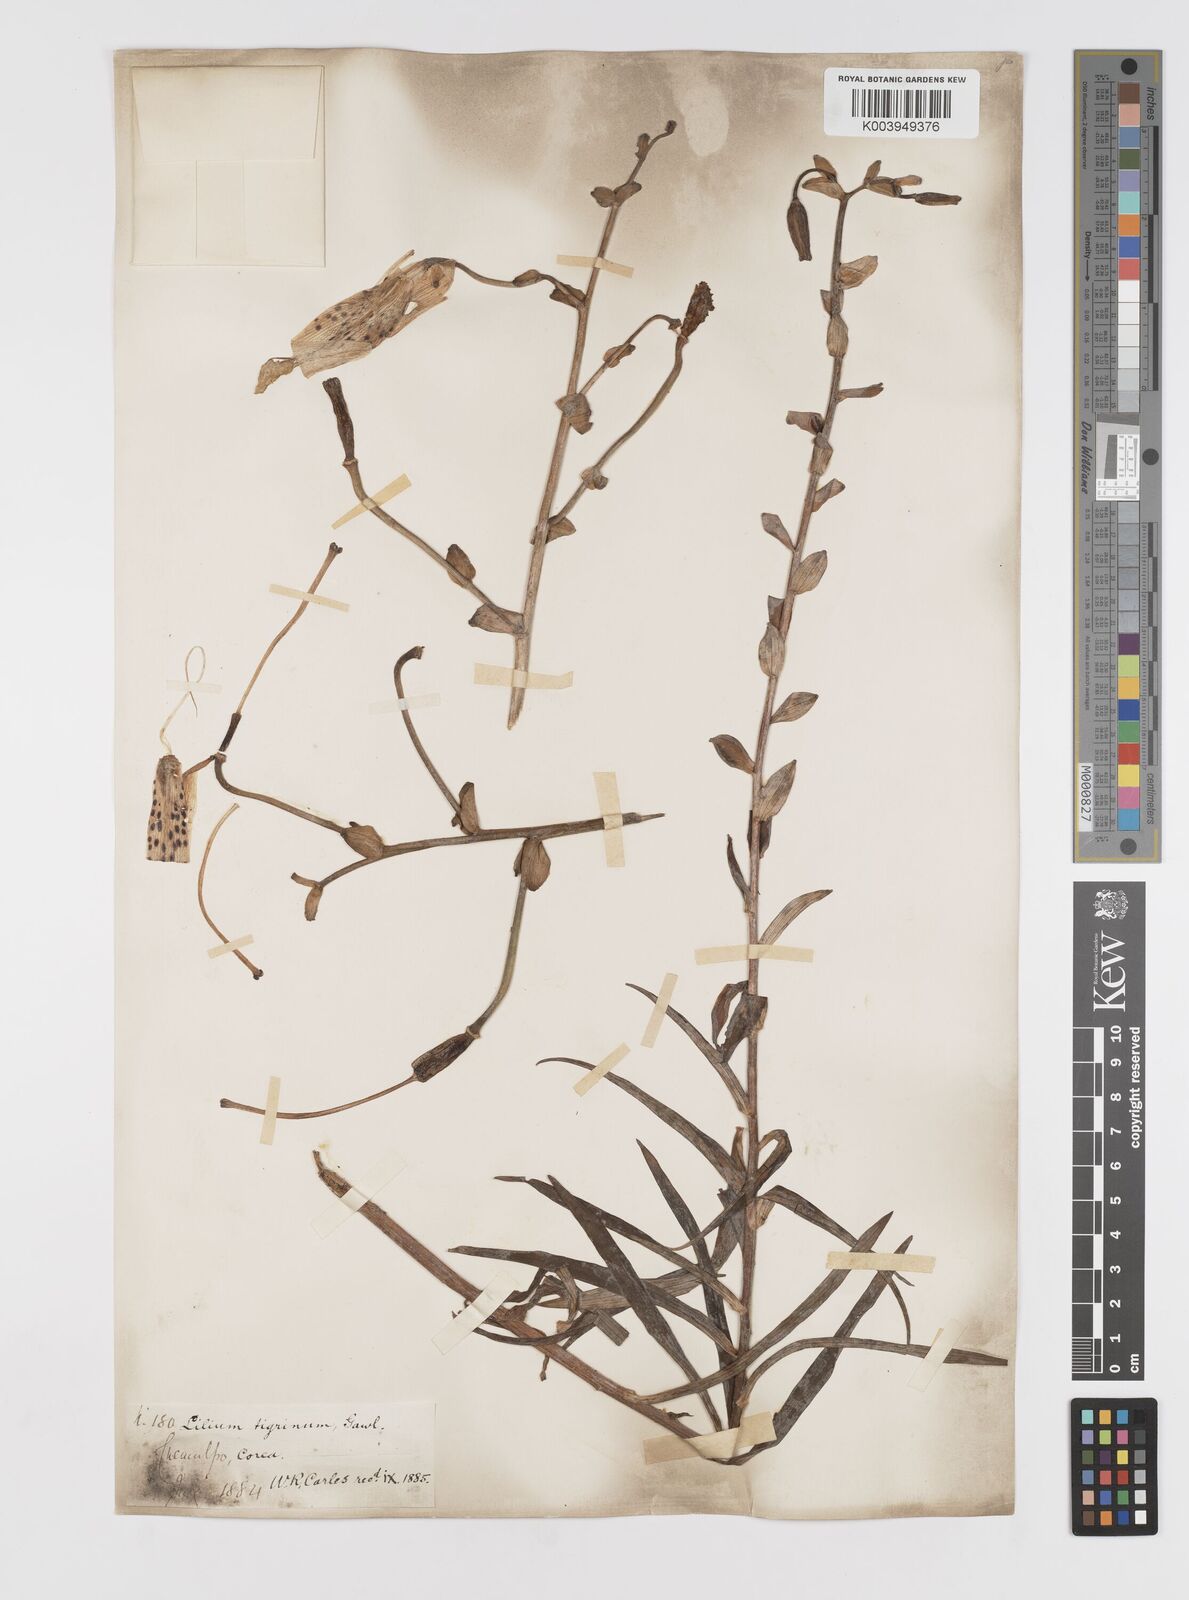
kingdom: Plantae
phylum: Tracheophyta
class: Liliopsida
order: Liliales
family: Liliaceae
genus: Lilium
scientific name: Lilium lancifolium
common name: Tiger lily
